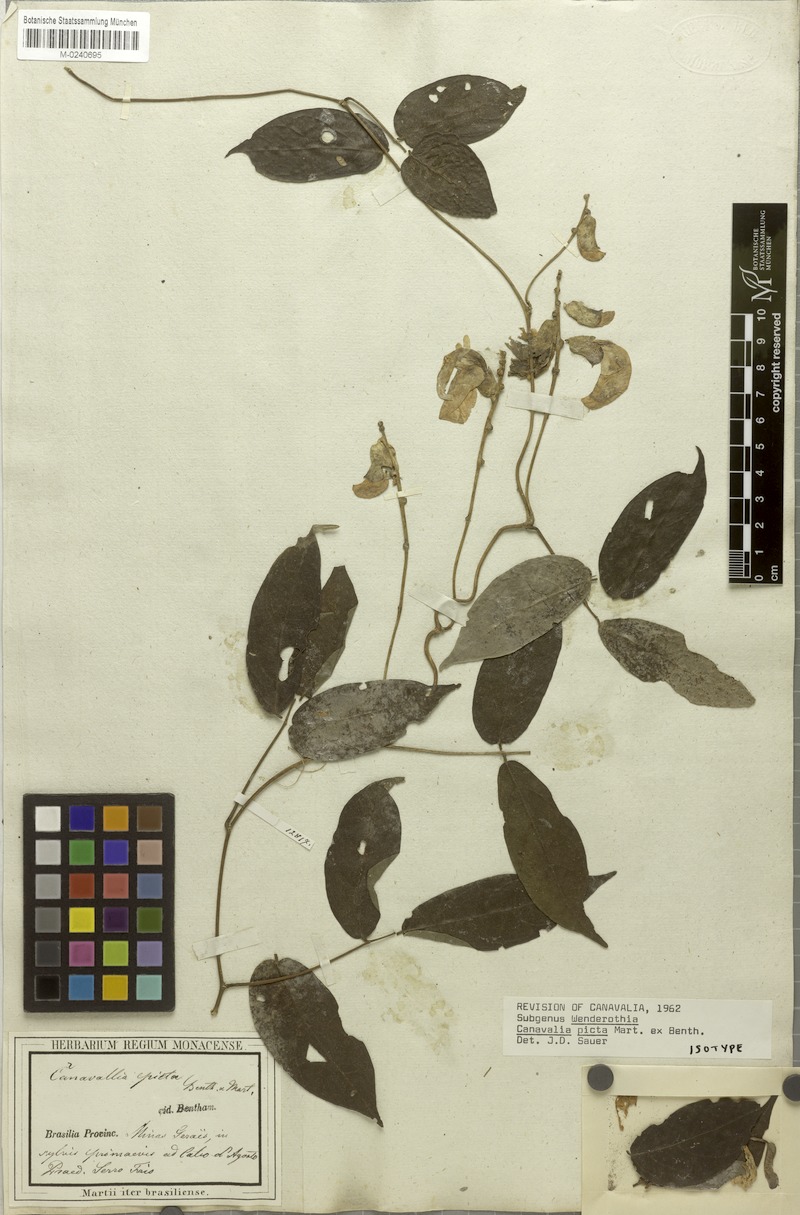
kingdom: Plantae
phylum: Tracheophyta
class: Magnoliopsida
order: Fabales
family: Fabaceae
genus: Canavalia
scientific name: Canavalia picta
